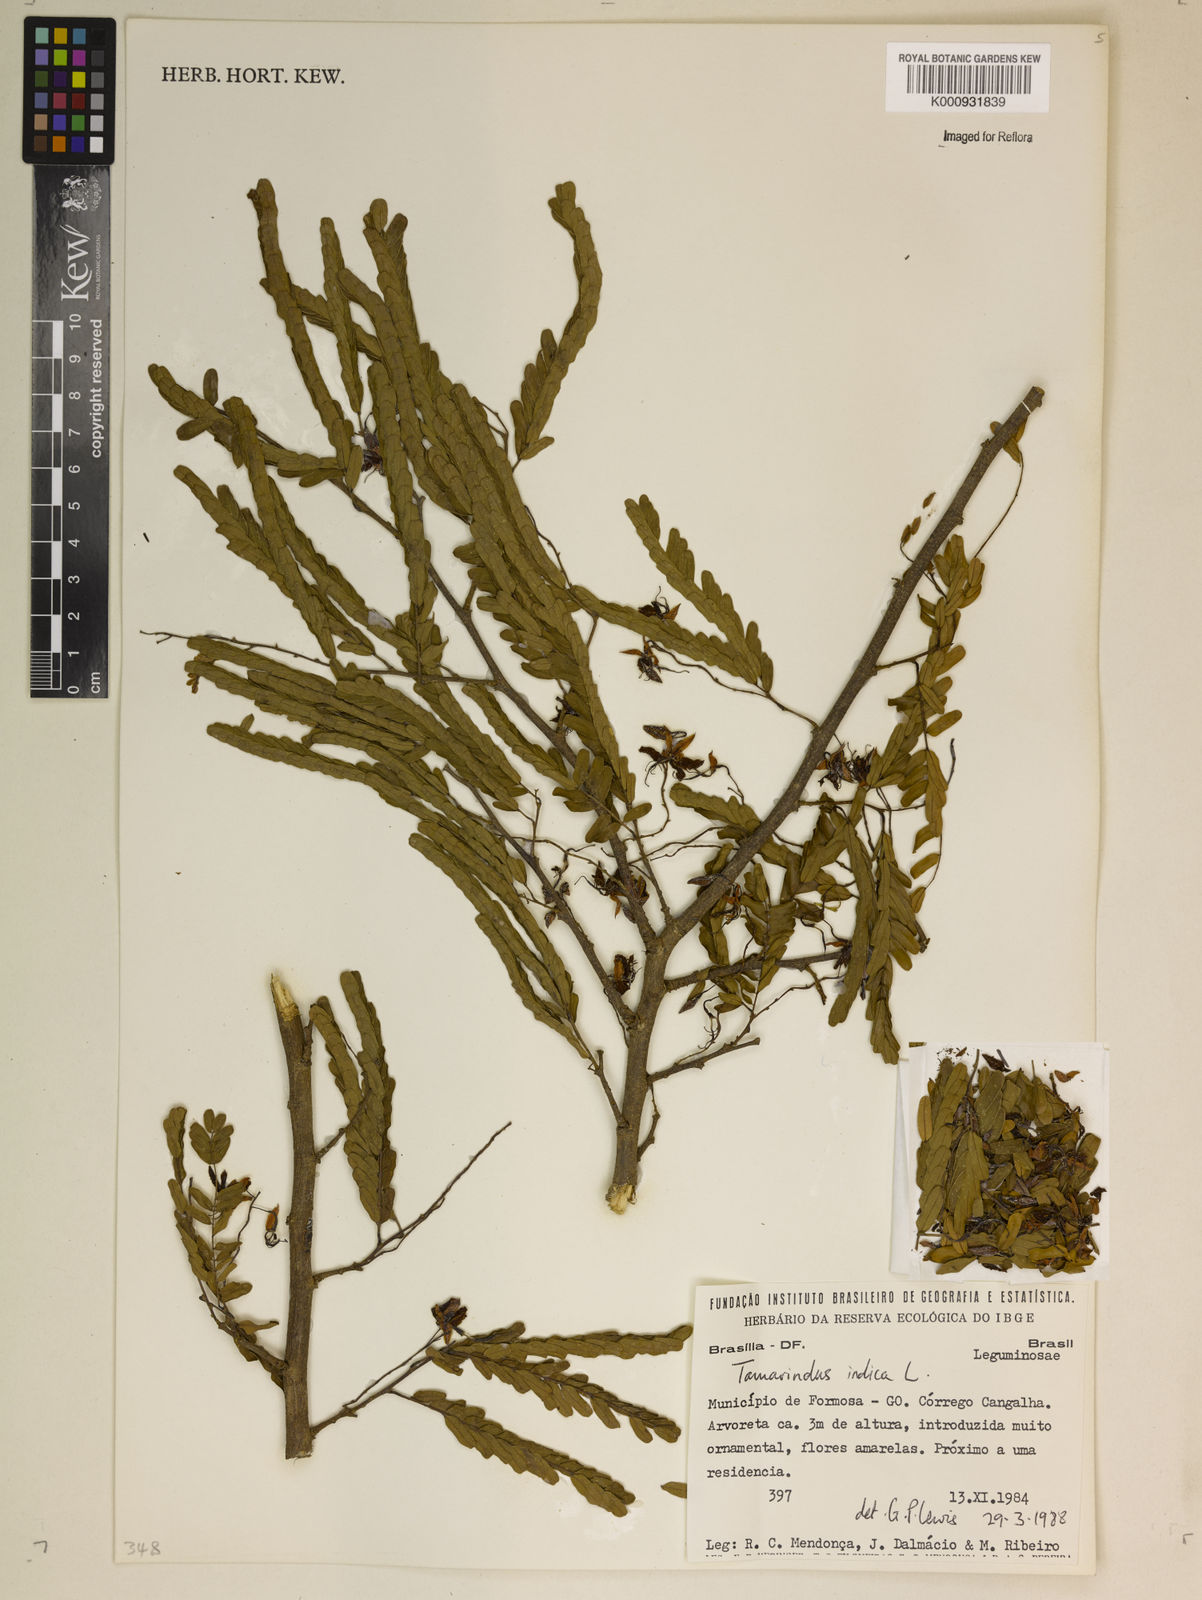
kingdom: Plantae
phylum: Tracheophyta
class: Magnoliopsida
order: Fabales
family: Fabaceae
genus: Tamarindus
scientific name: Tamarindus indica
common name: Tamarind
